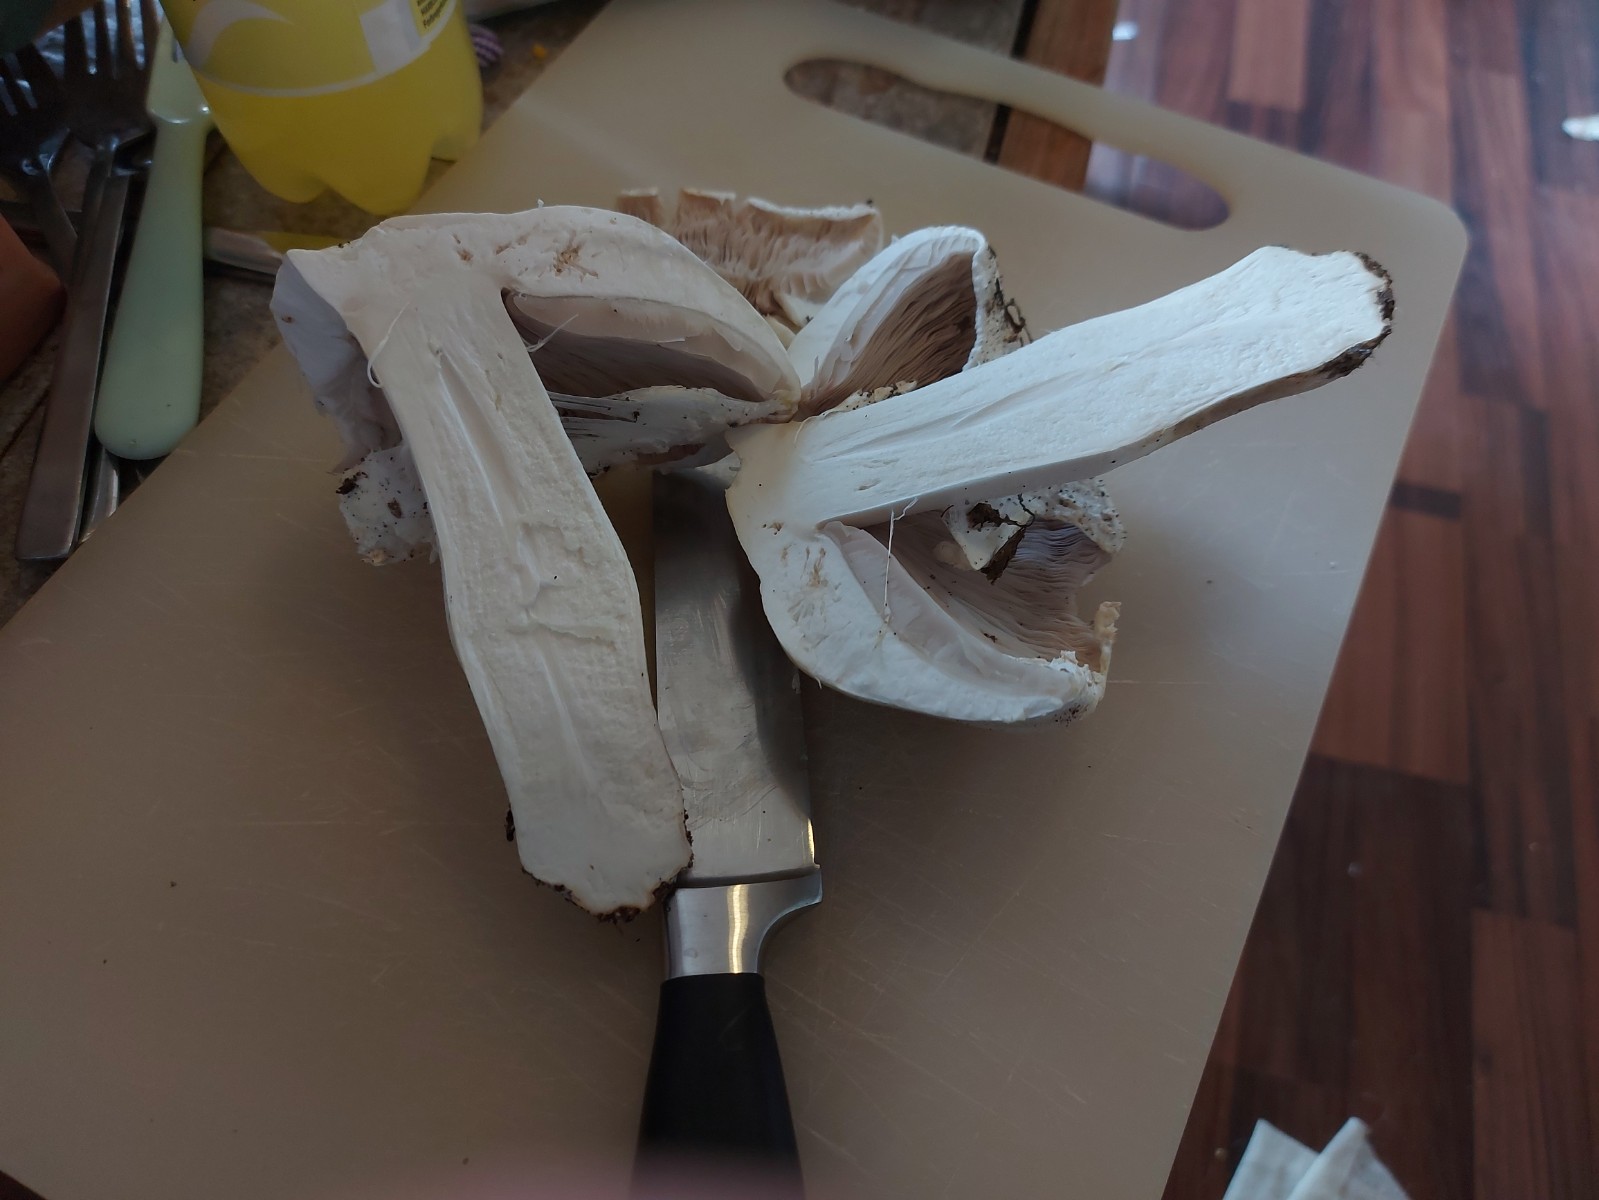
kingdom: Fungi
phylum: Basidiomycota
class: Agaricomycetes
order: Agaricales
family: Agaricaceae
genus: Agaricus
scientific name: Agaricus arvensis
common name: ager-champignon
